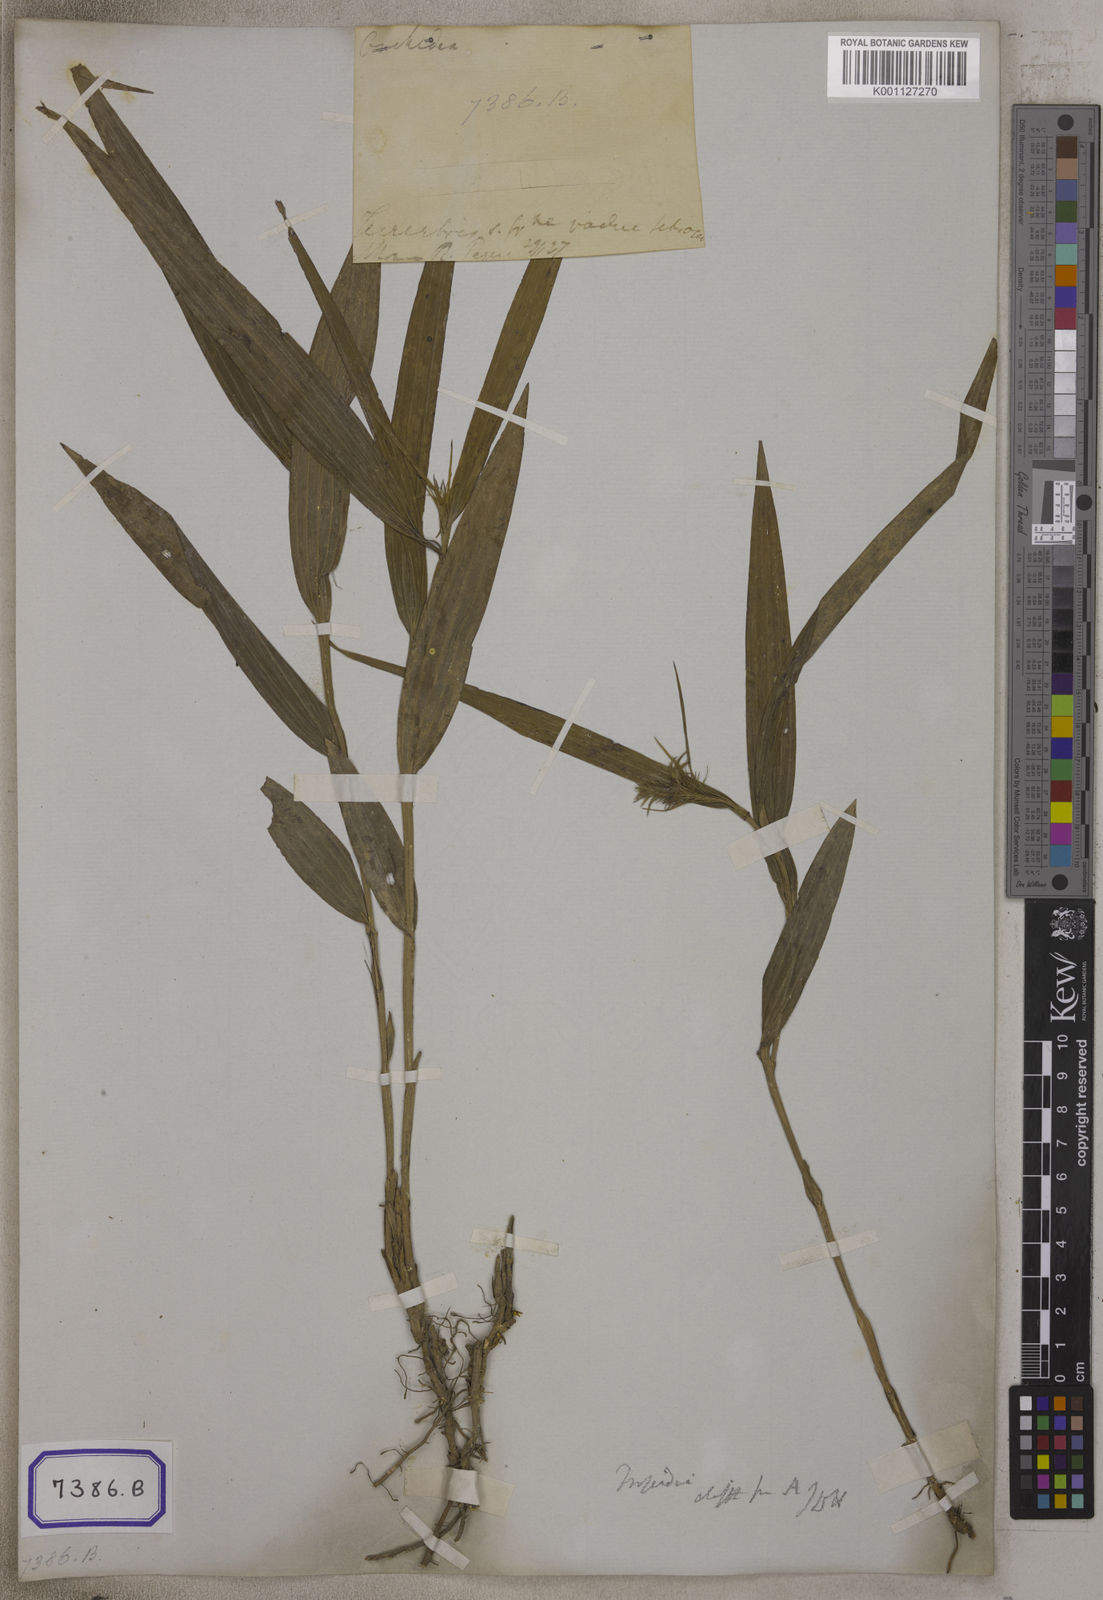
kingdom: Plantae
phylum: Tracheophyta
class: Liliopsida
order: Asparagales
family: Orchidaceae
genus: Tropidia
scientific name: Tropidia curculigoides
